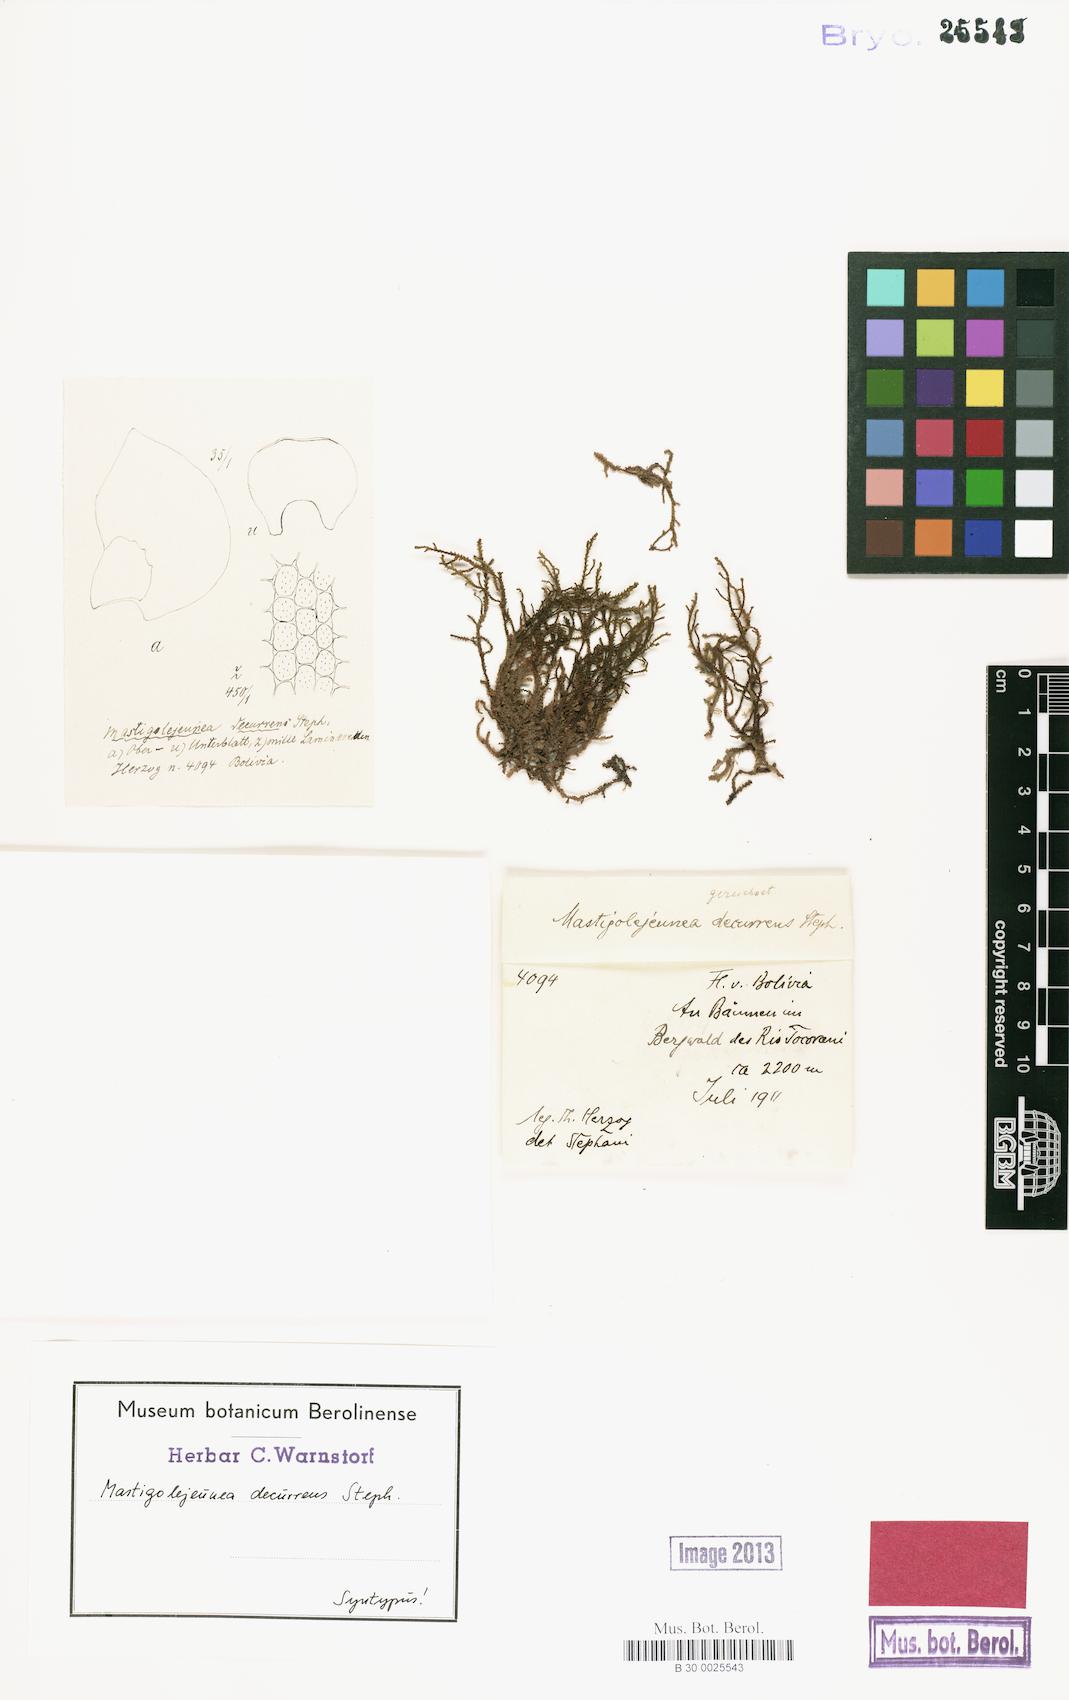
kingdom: Plantae
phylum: Marchantiophyta
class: Jungermanniopsida
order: Porellales
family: Lejeuneaceae
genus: Frullanoides
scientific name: Frullanoides densifolia
